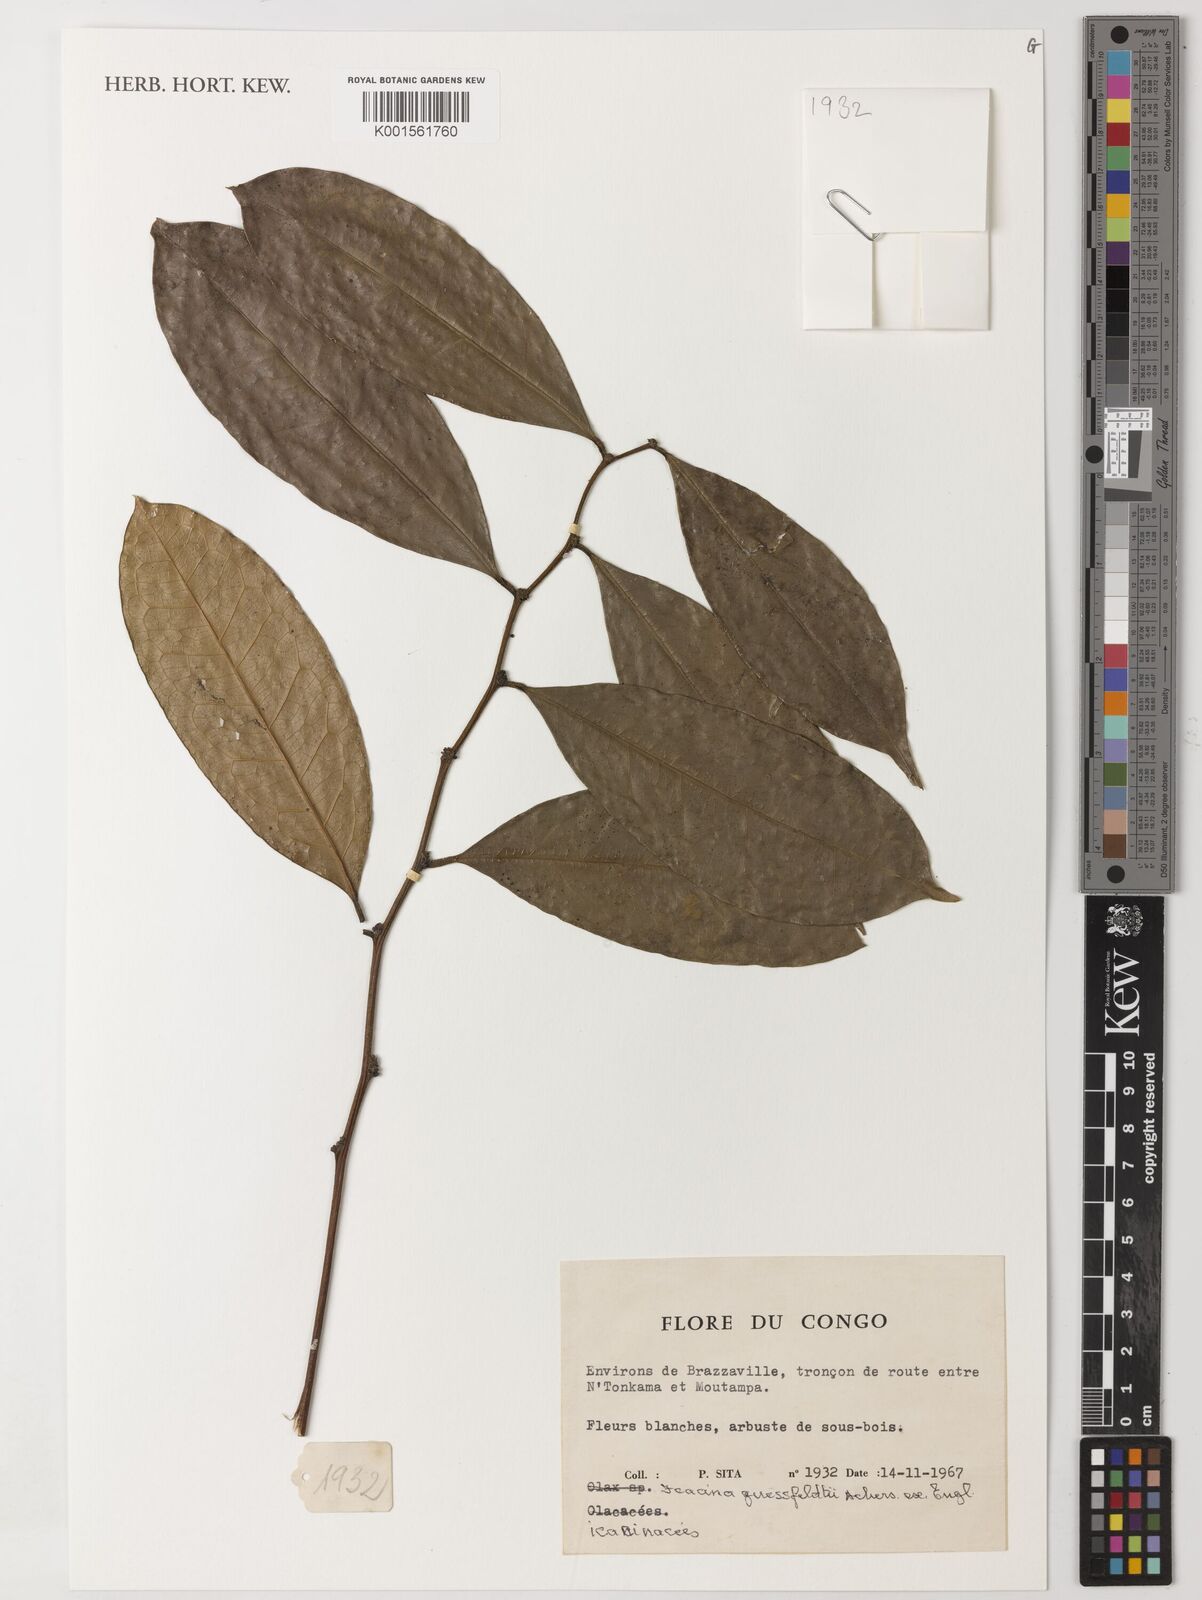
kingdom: Plantae
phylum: Tracheophyta
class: Magnoliopsida
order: Icacinales
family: Icacinaceae
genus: Icacina
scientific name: Icacina guessfeldtii
